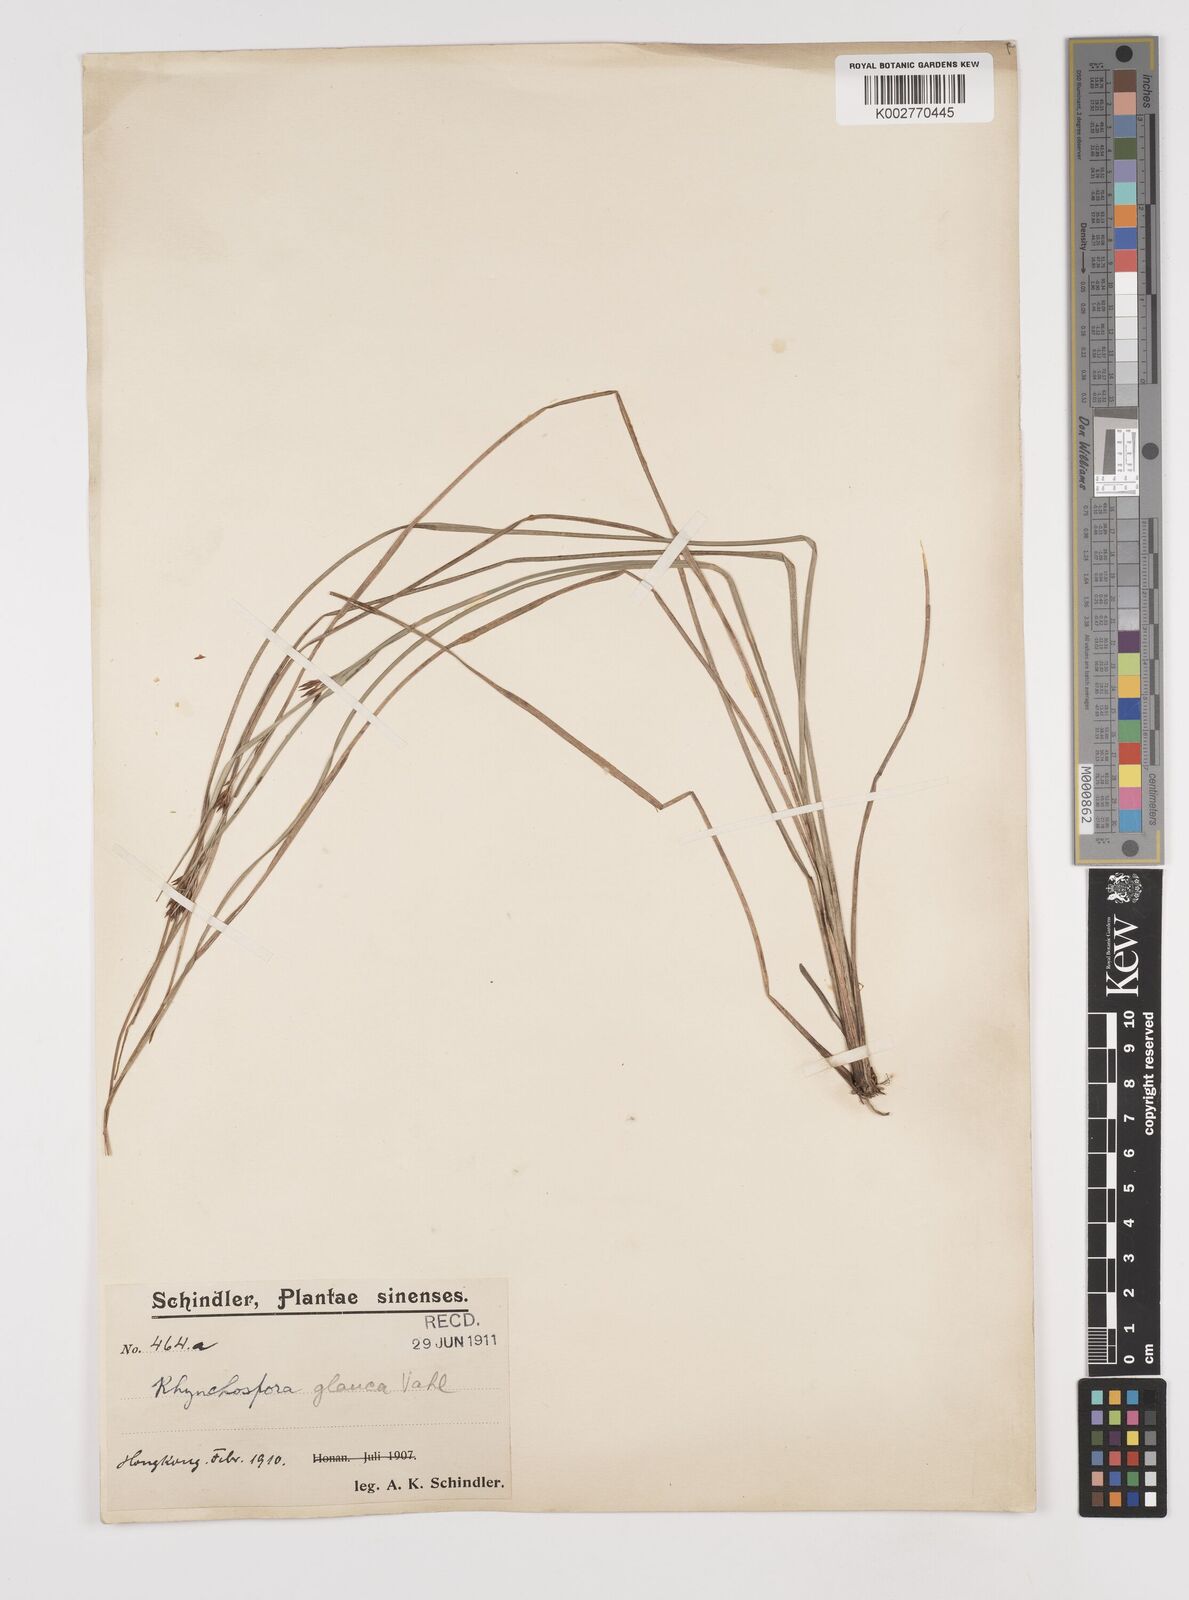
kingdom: Plantae
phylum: Tracheophyta
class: Liliopsida
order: Poales
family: Cyperaceae
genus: Rhynchospora
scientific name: Rhynchospora
